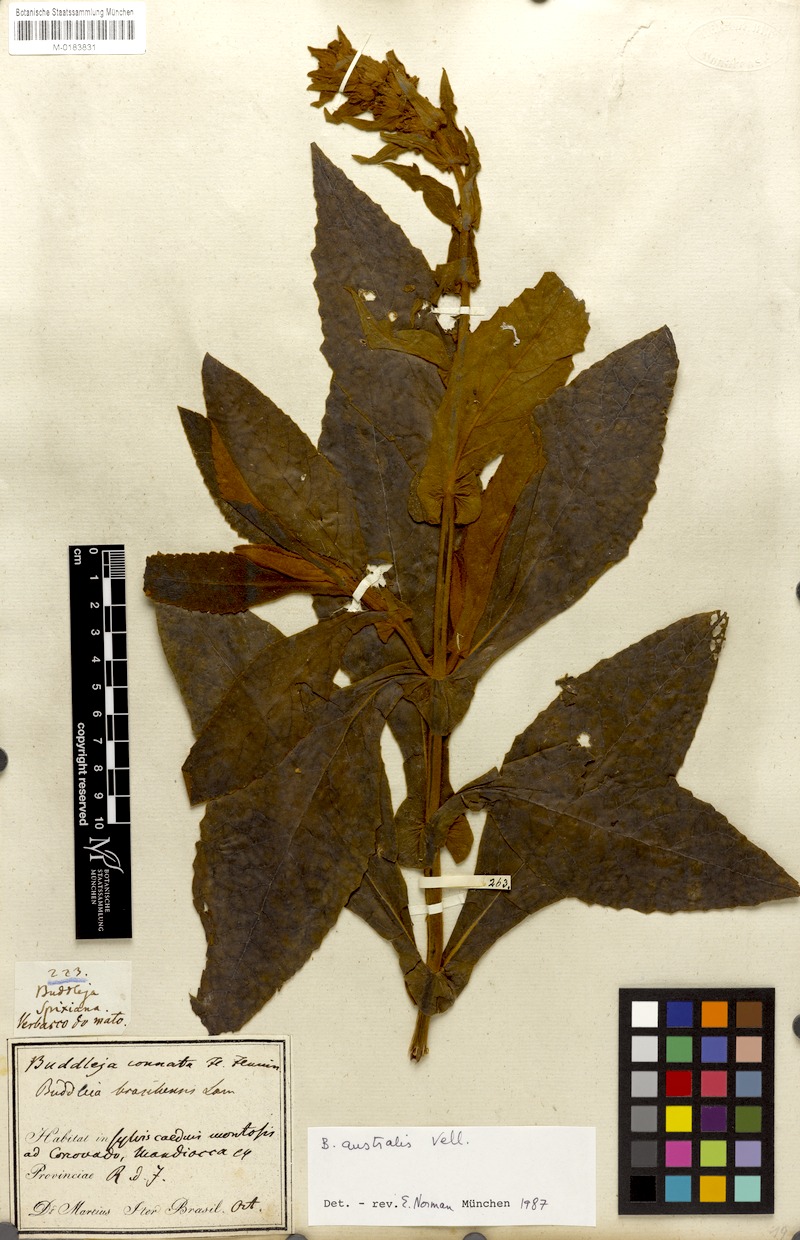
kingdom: Plantae
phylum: Tracheophyta
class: Magnoliopsida
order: Lamiales
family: Scrophulariaceae
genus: Buddleja
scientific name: Buddleja stachyoides
